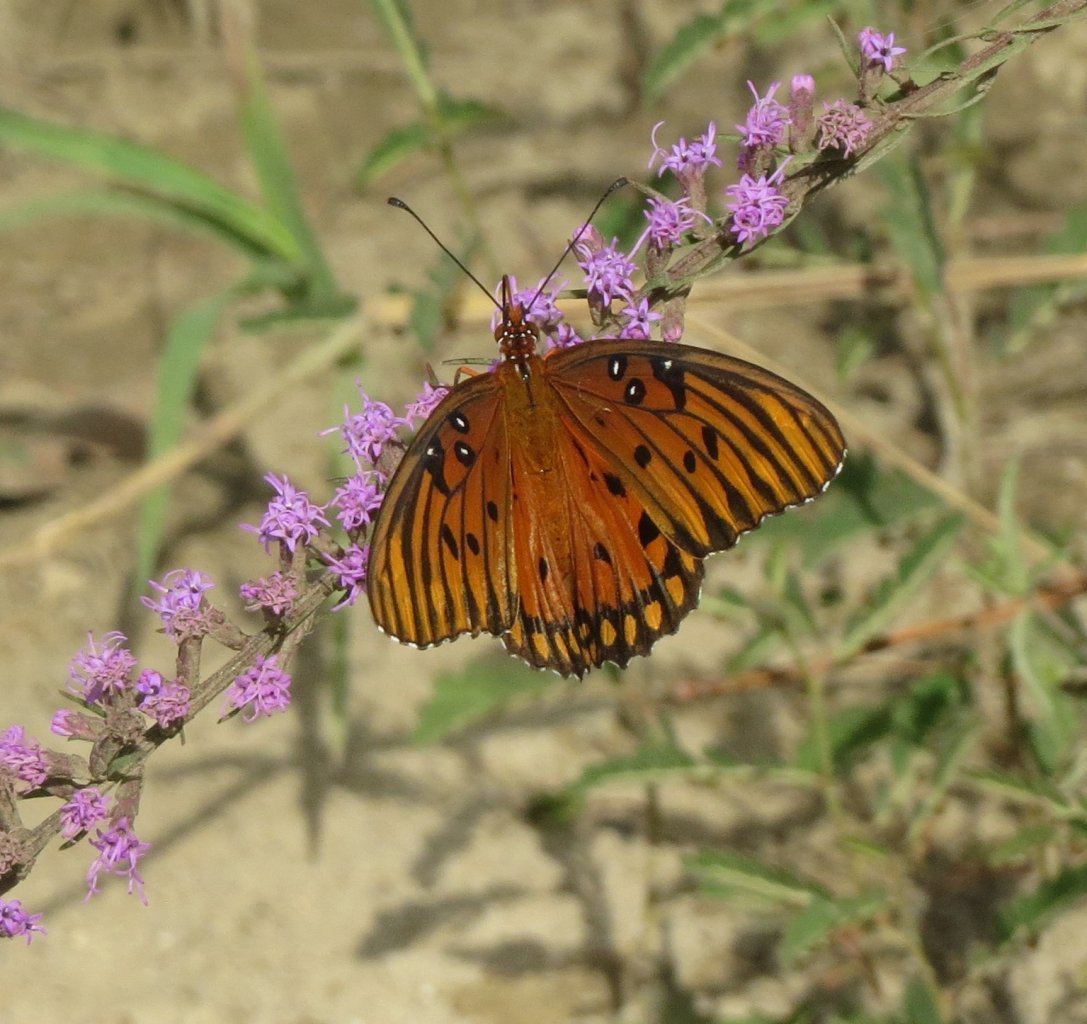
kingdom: Animalia
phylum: Arthropoda
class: Insecta
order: Lepidoptera
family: Nymphalidae
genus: Dione
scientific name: Dione vanillae
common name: Gulf Fritillary
